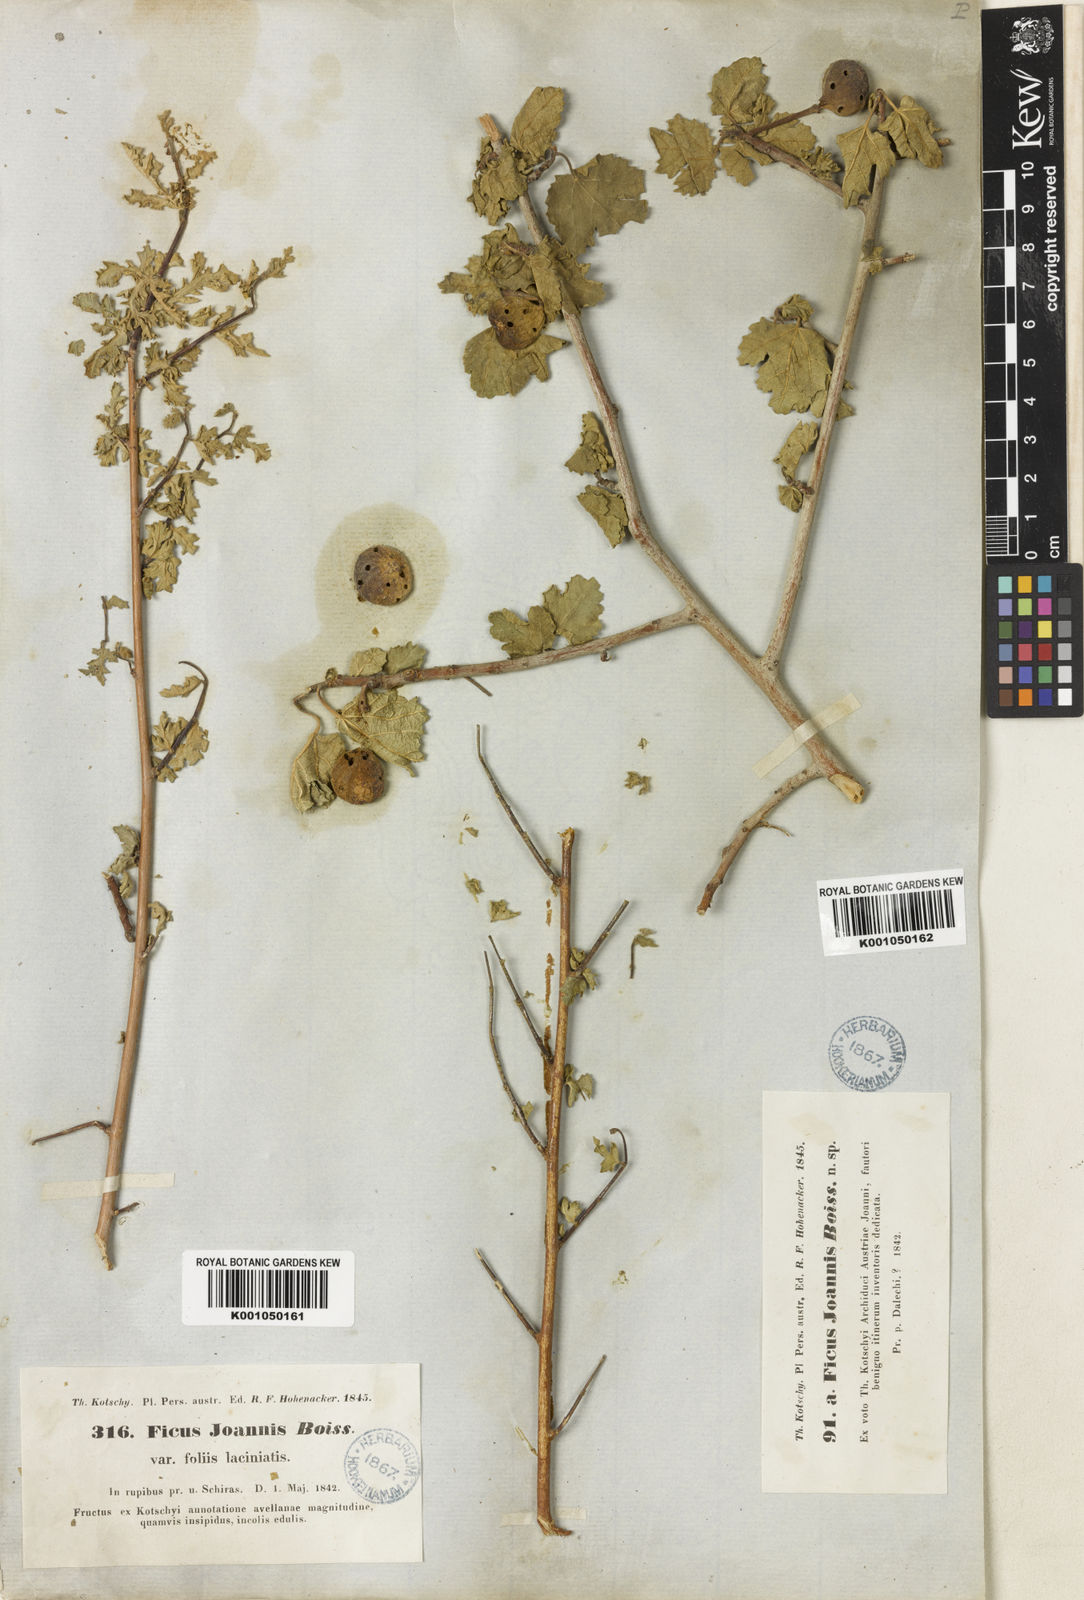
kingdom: Plantae
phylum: Tracheophyta
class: Magnoliopsida
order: Rosales
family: Moraceae
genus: Ficus
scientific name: Ficus johannis
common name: Mountain fig
